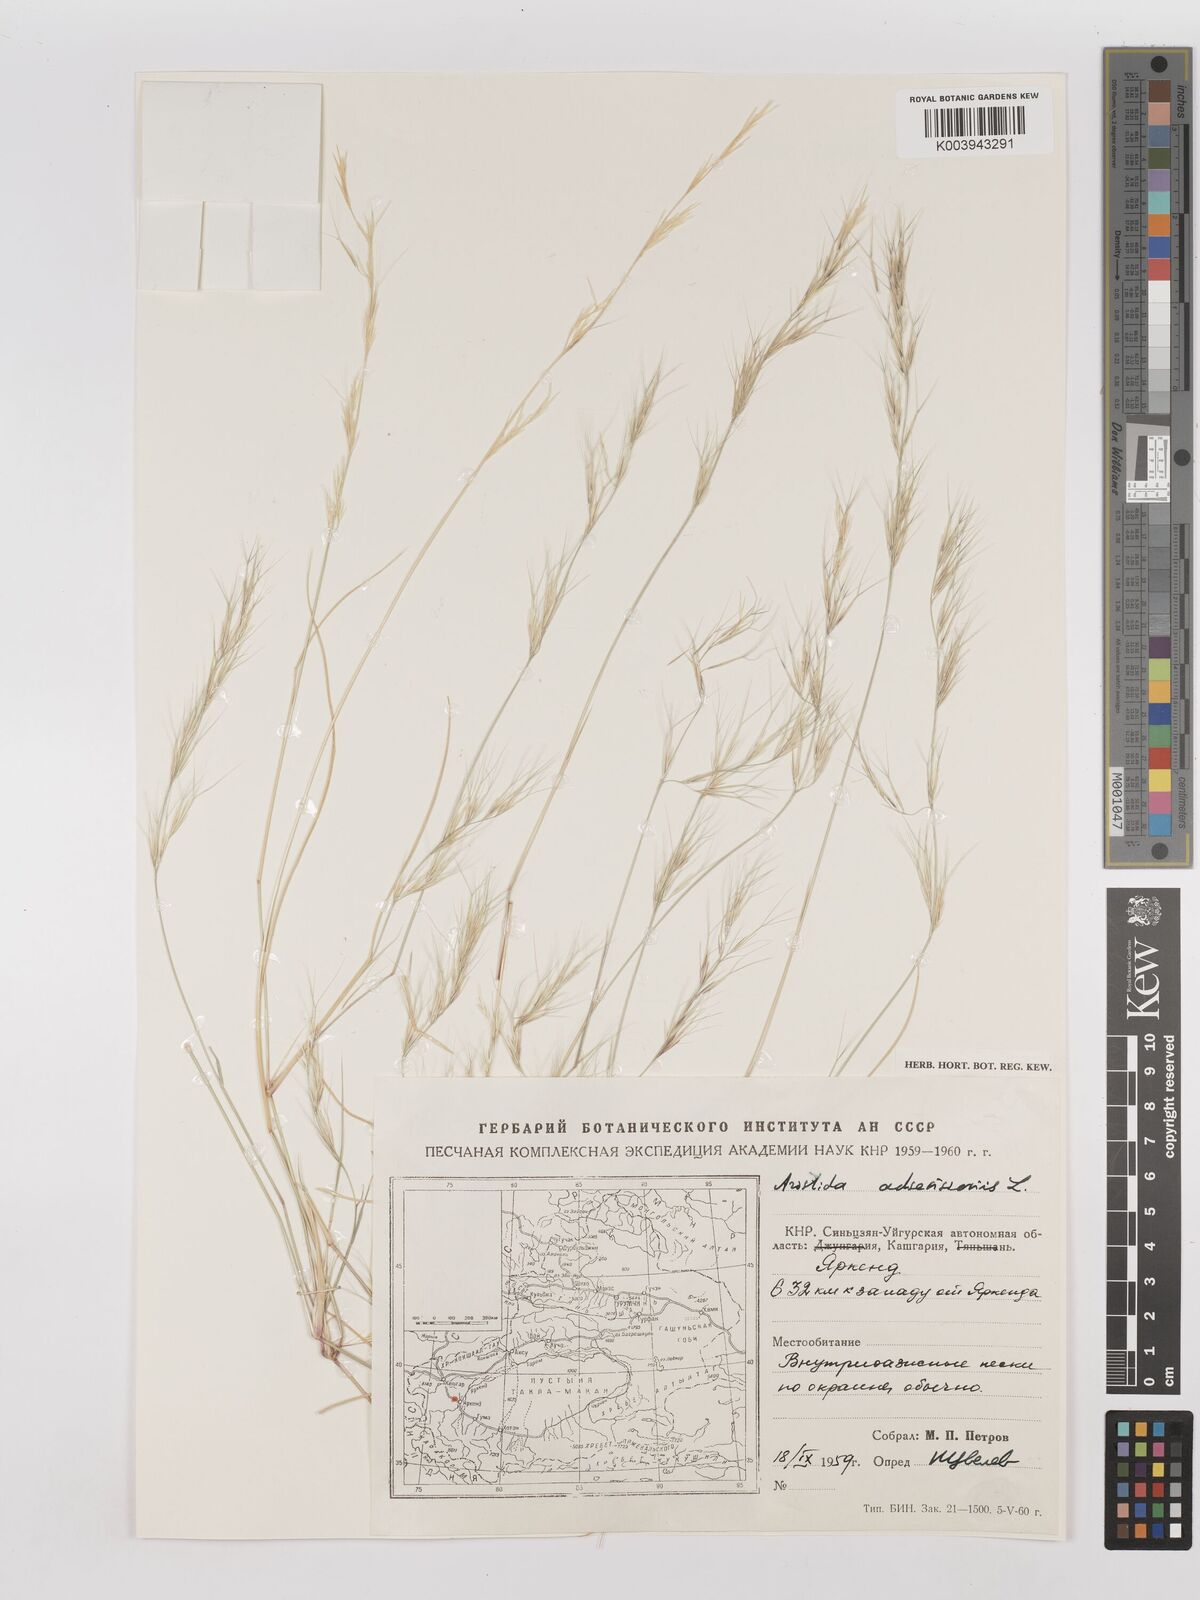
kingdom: Plantae
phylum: Tracheophyta
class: Liliopsida
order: Poales
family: Poaceae
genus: Aristida
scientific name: Aristida adscensionis
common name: Sixweeks threeawn
